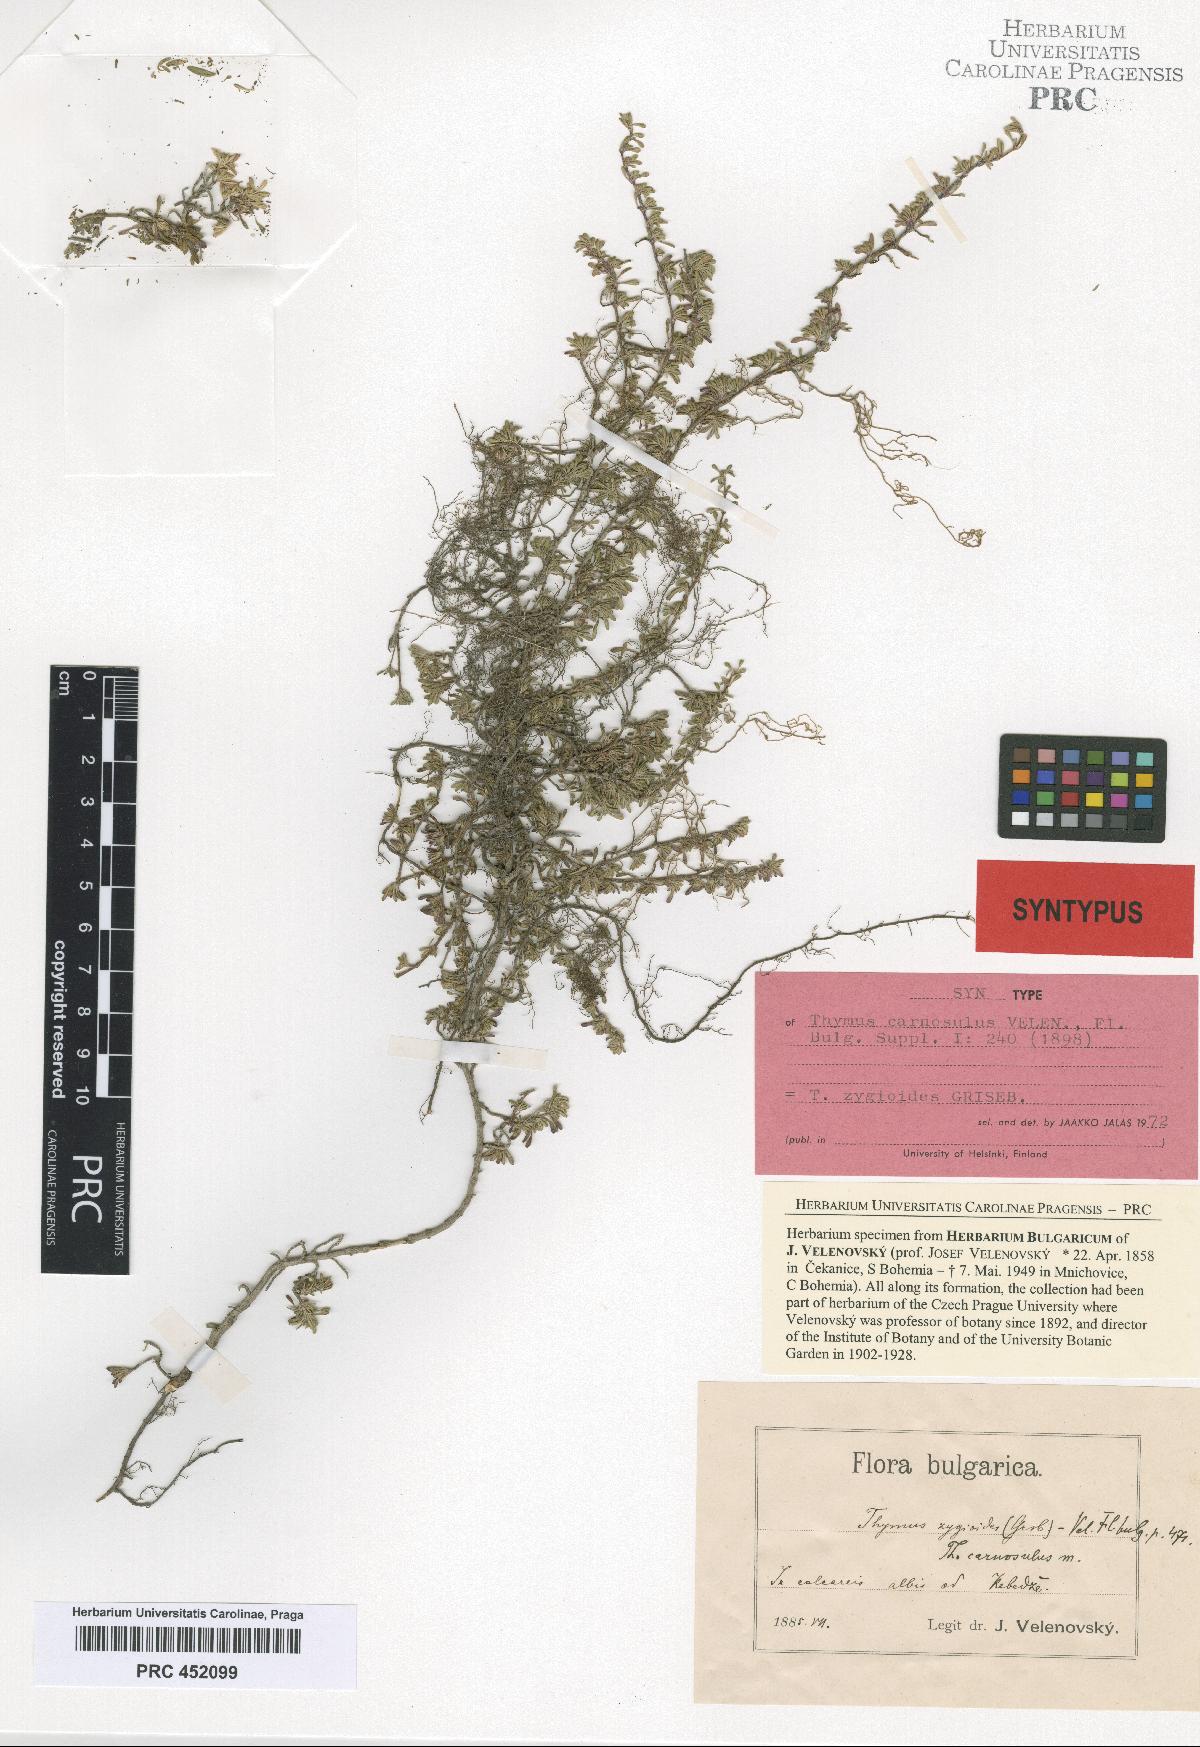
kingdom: Plantae
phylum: Tracheophyta
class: Magnoliopsida
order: Lamiales
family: Lamiaceae
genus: Thymus
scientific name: Thymus zygioides
